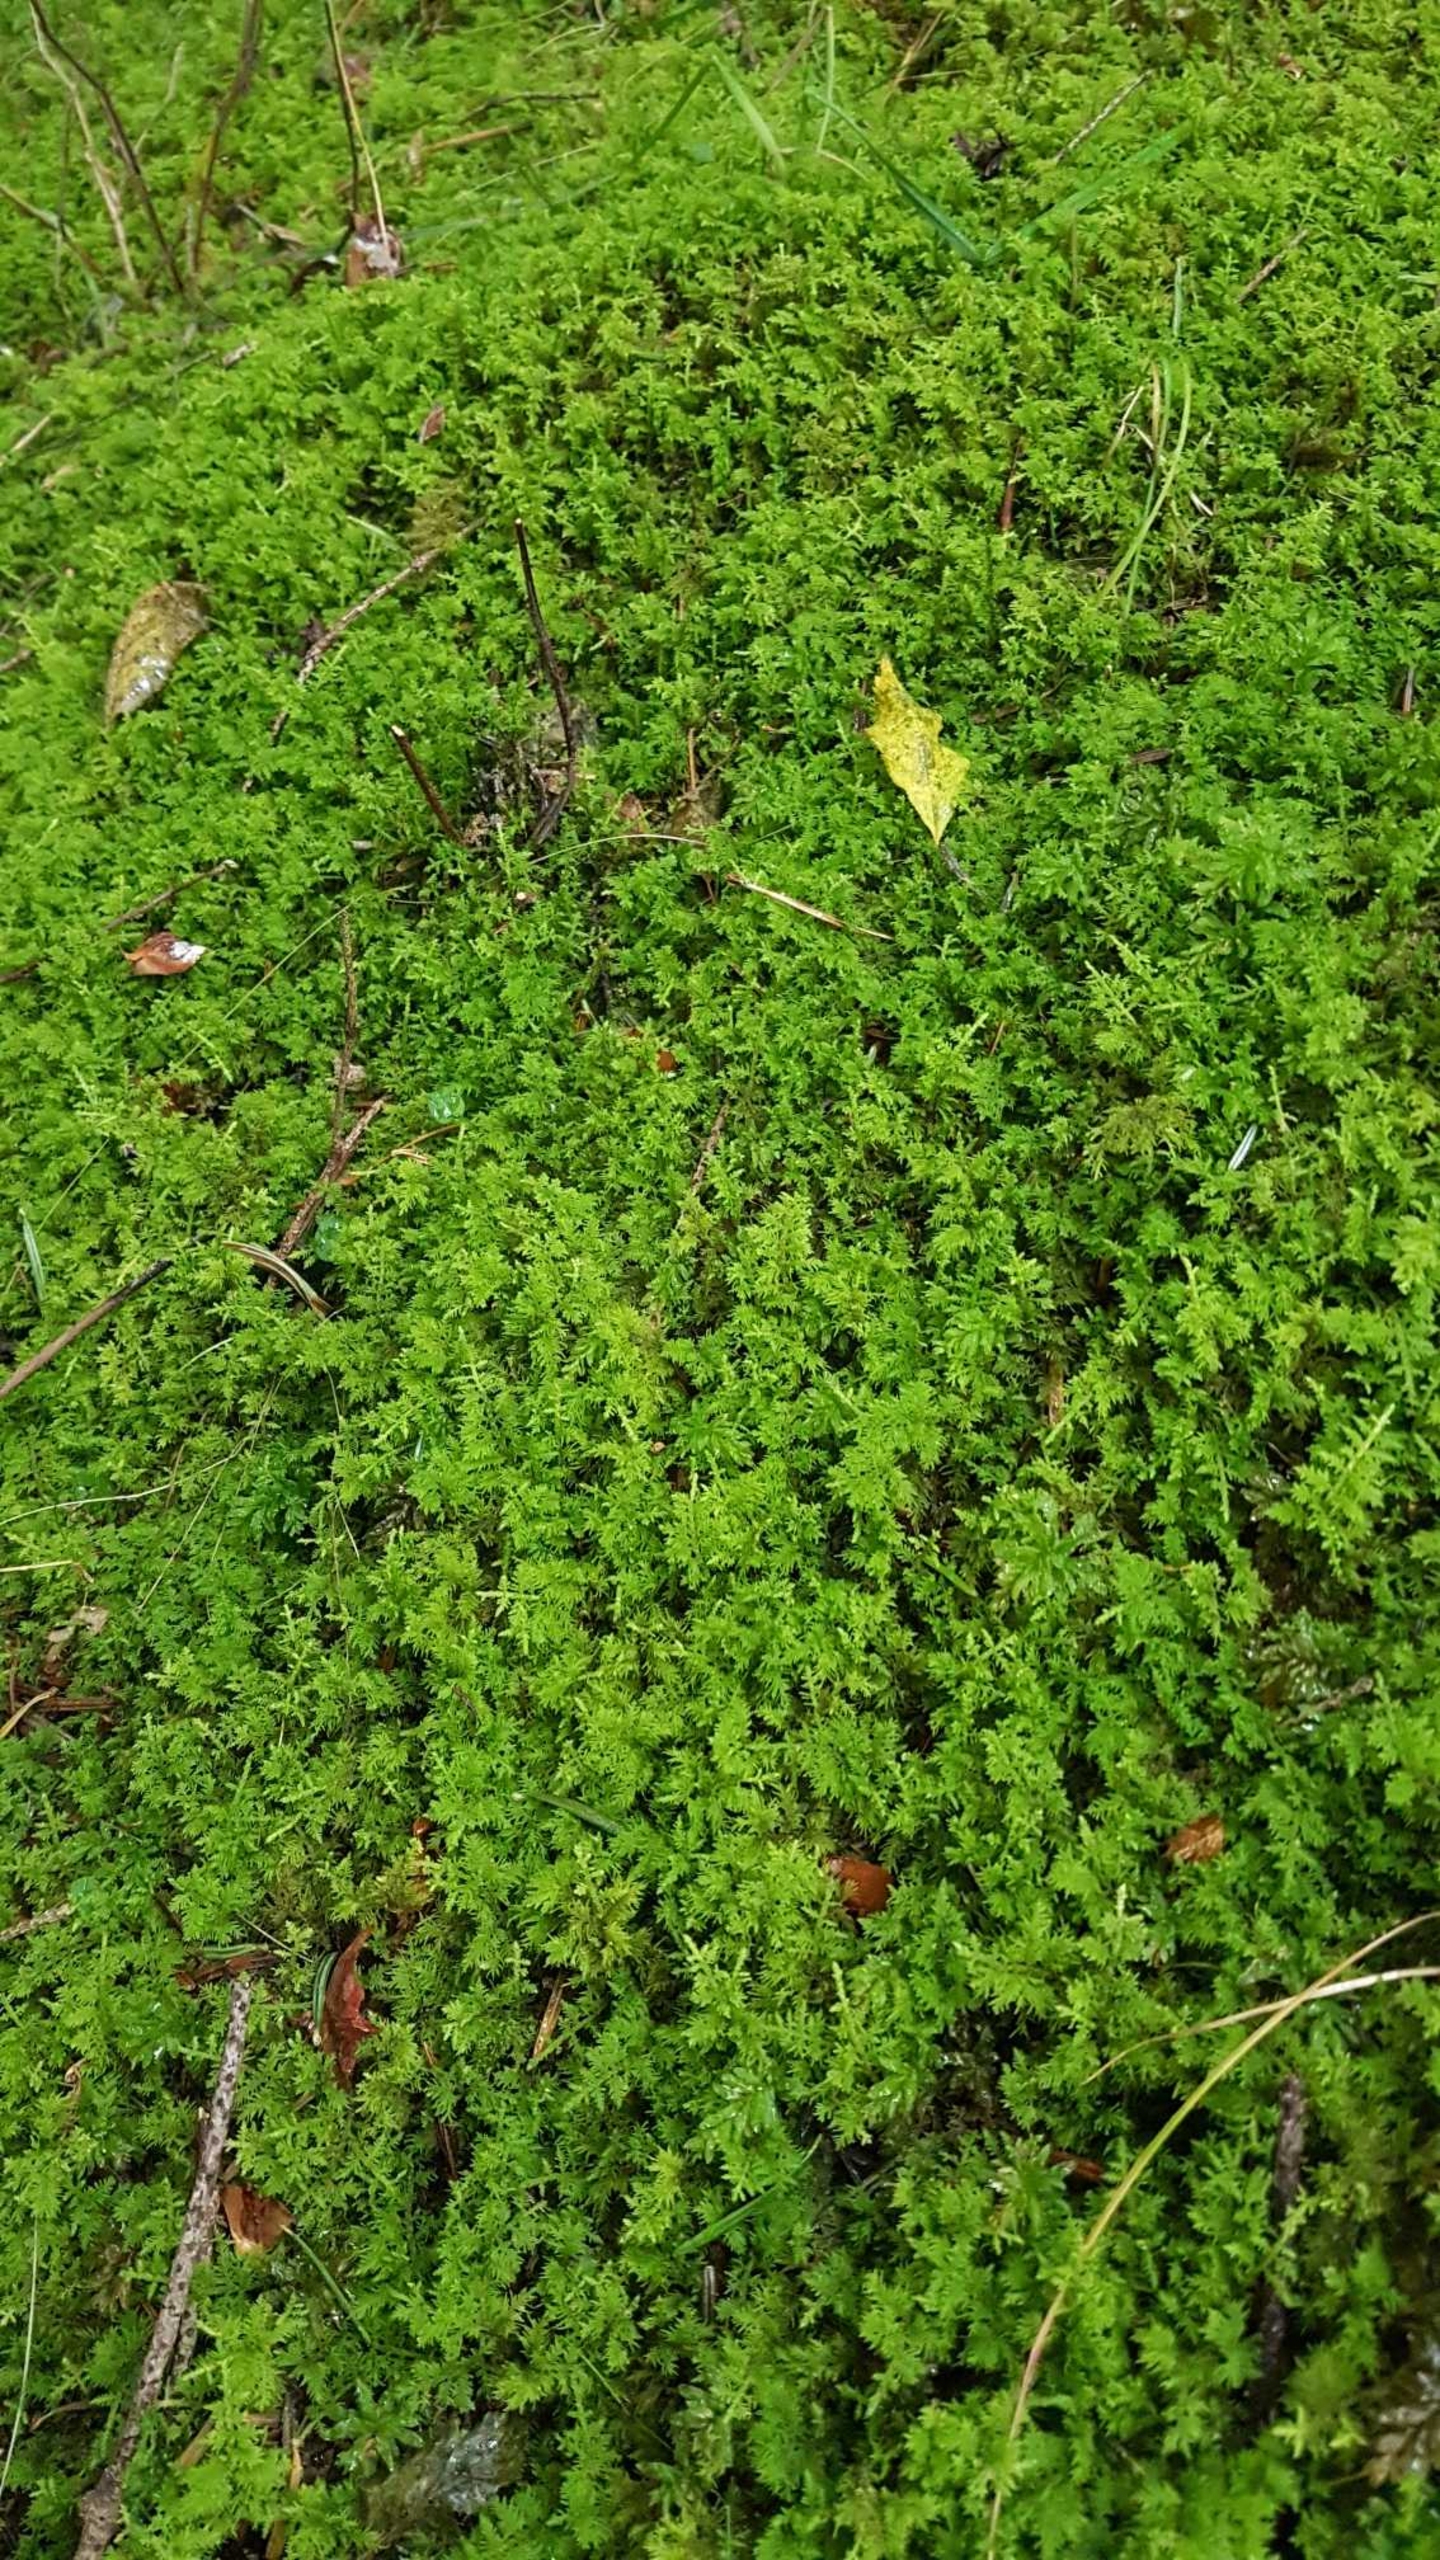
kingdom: Plantae
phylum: Bryophyta
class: Bryopsida
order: Hypnales
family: Thuidiaceae
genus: Thuidium
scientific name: Thuidium assimile
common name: Spidsbladet bregnemos
